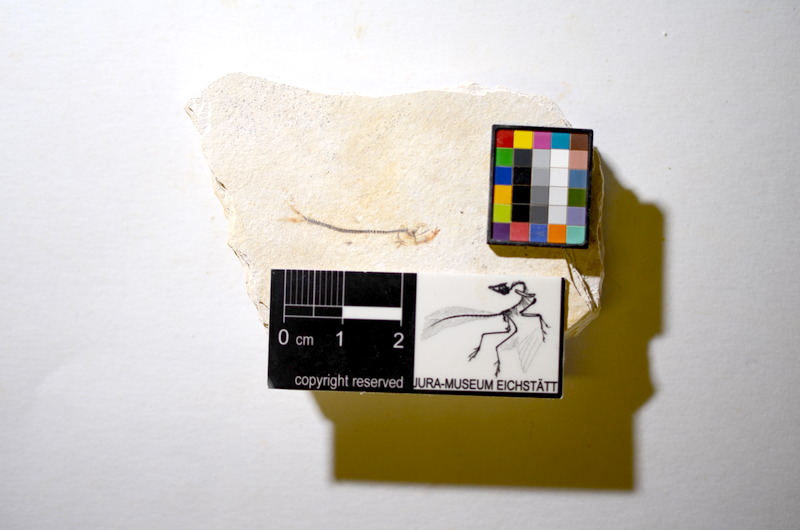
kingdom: Animalia
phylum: Chordata
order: Salmoniformes
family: Orthogonikleithridae
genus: Orthogonikleithrus
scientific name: Orthogonikleithrus hoelli
